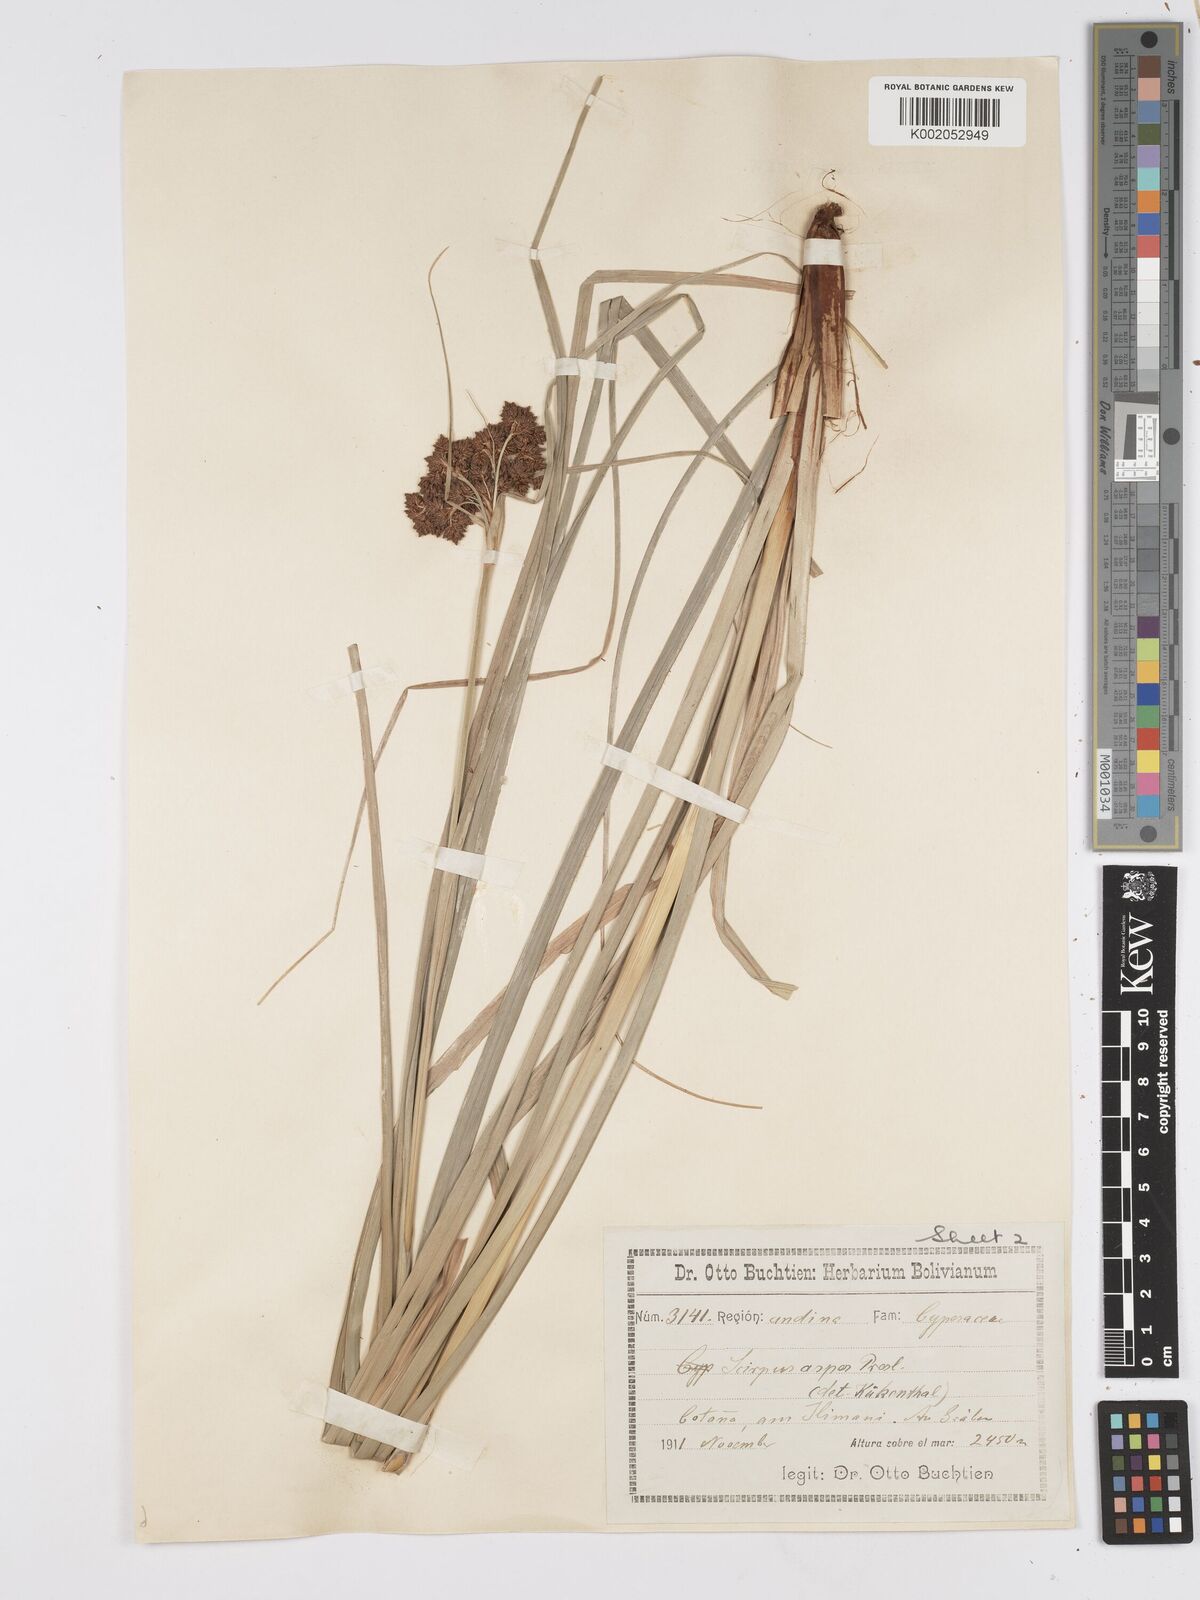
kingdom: Plantae
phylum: Tracheophyta
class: Liliopsida
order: Poales
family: Cyperaceae
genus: Rhodoscirpus
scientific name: Rhodoscirpus asper
